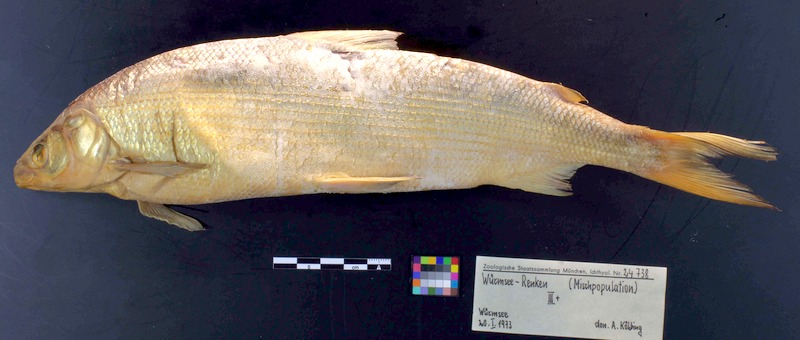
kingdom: Animalia
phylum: Chordata
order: Salmoniformes
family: Salmonidae
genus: Coregonus
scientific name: Coregonus renke
